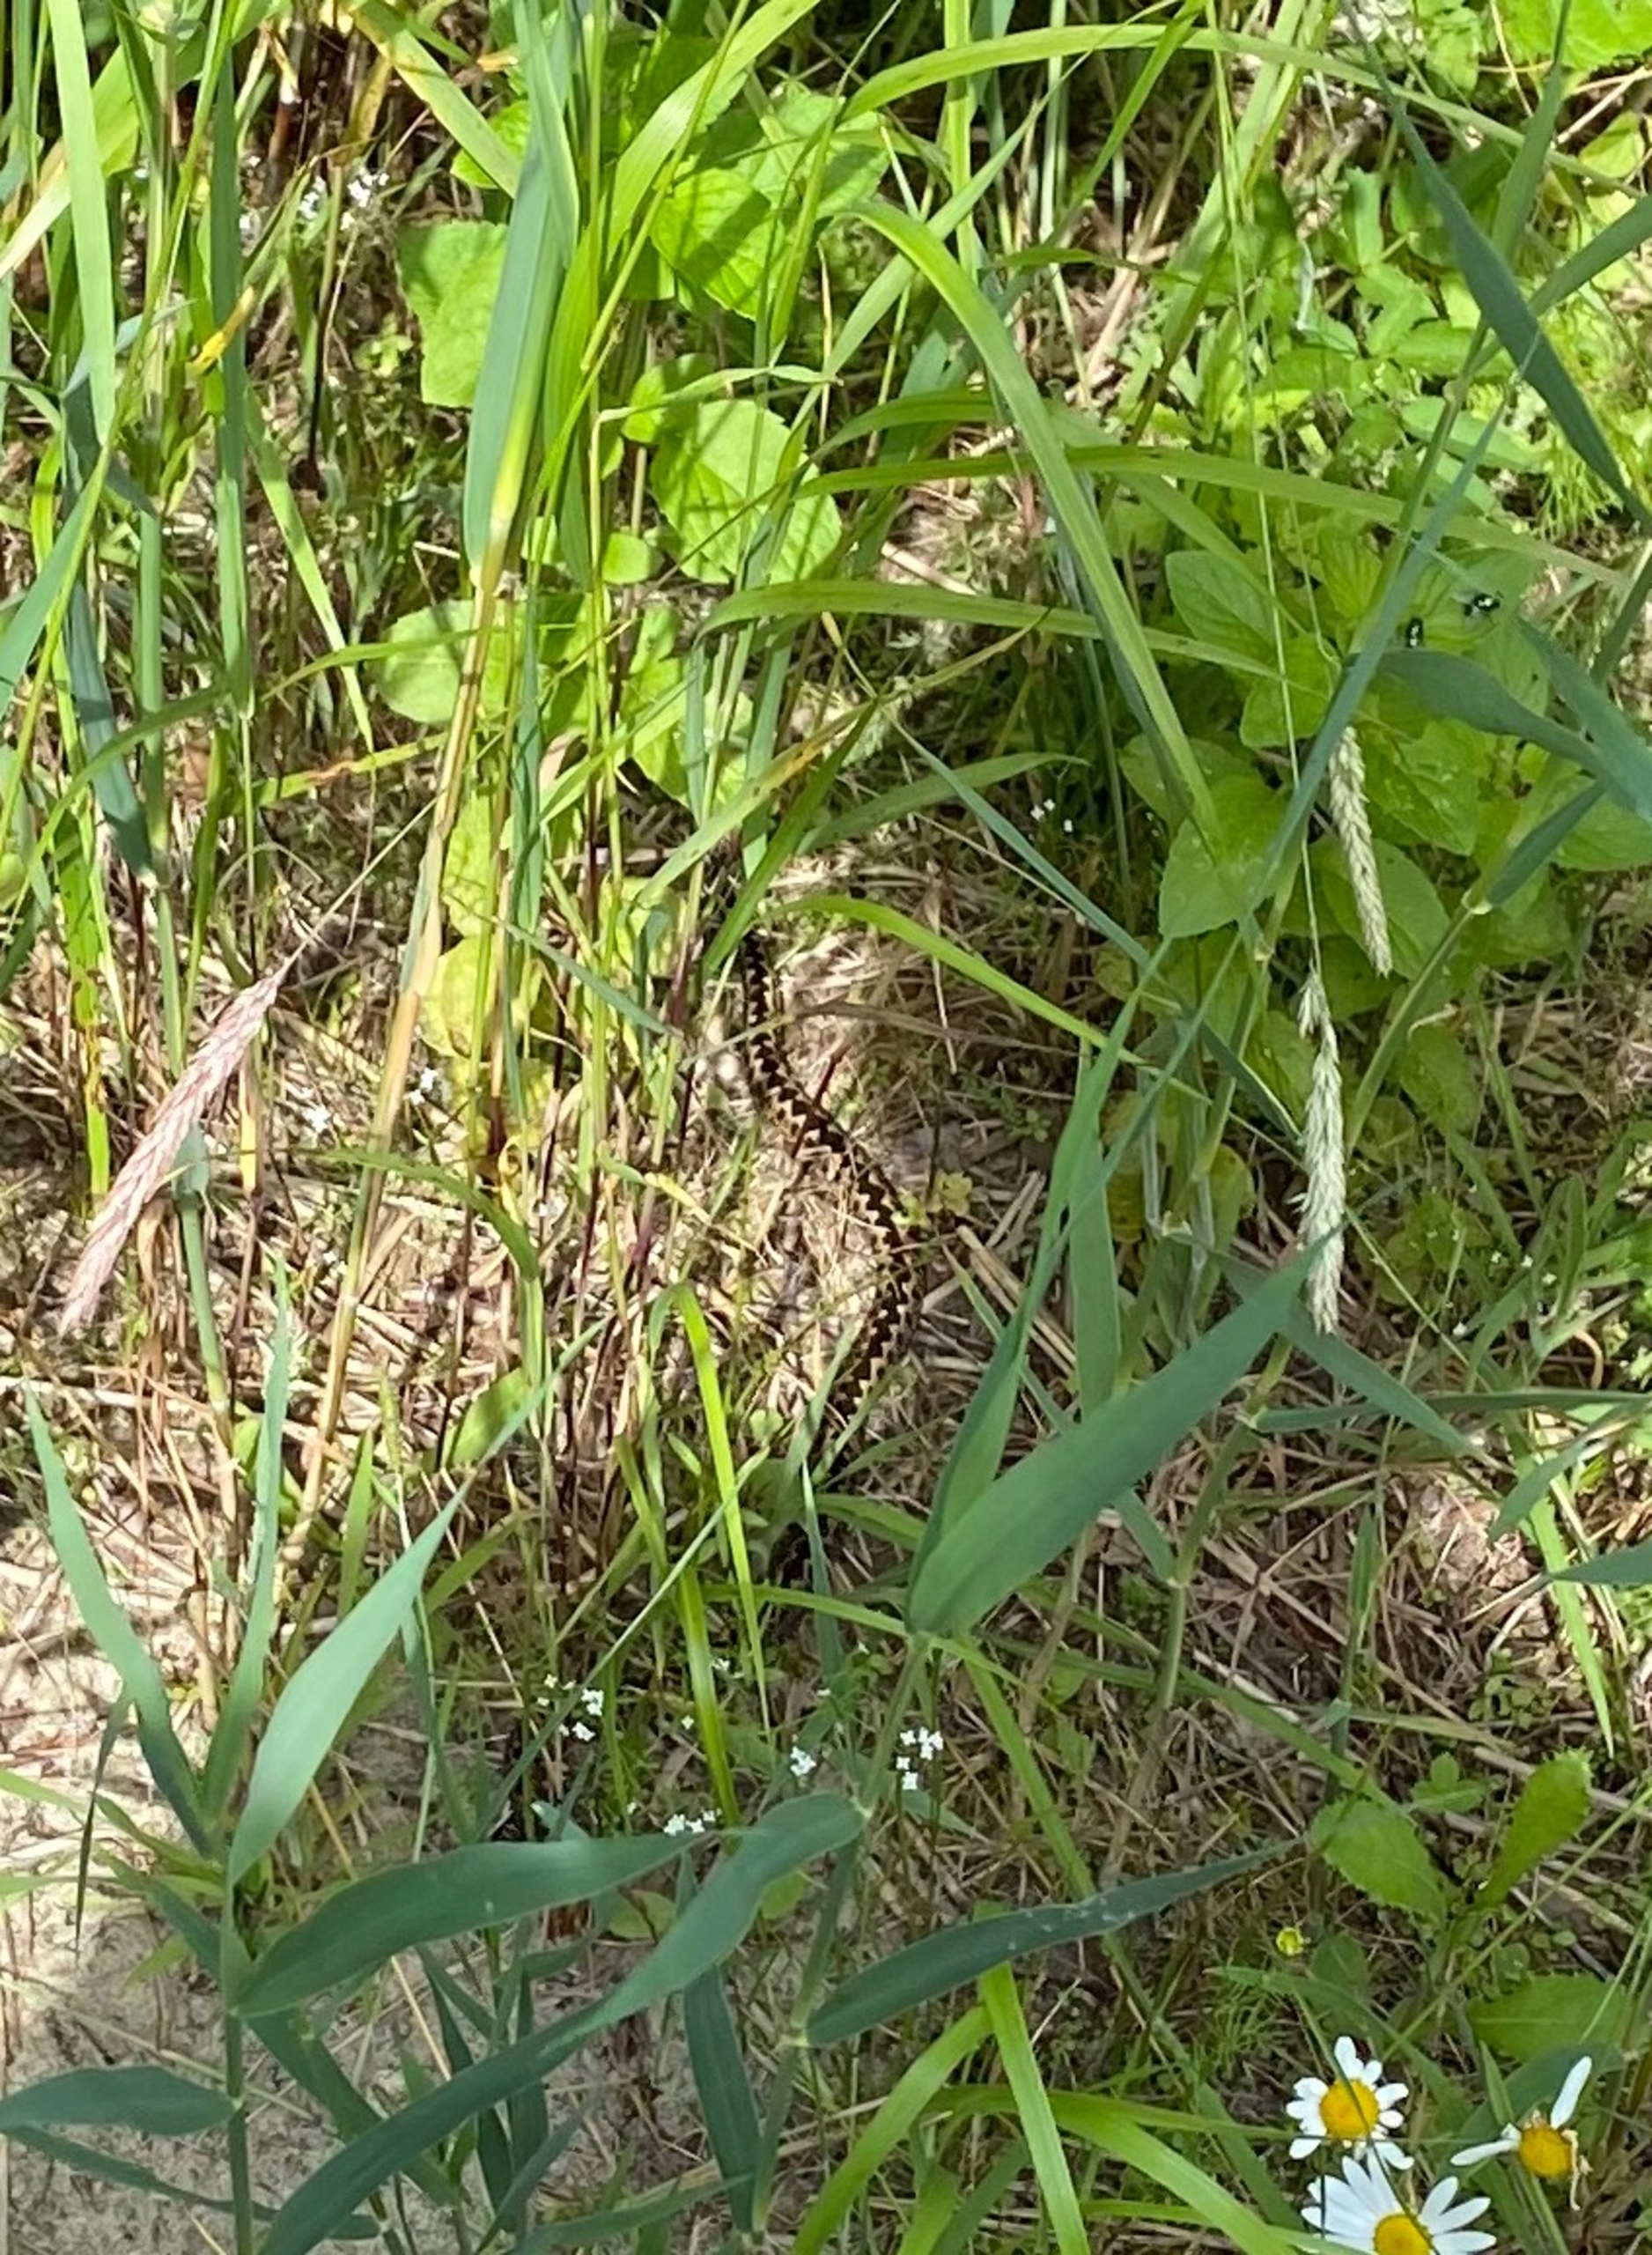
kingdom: Animalia
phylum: Chordata
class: Squamata
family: Viperidae
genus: Vipera
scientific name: Vipera berus
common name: Hugorm
